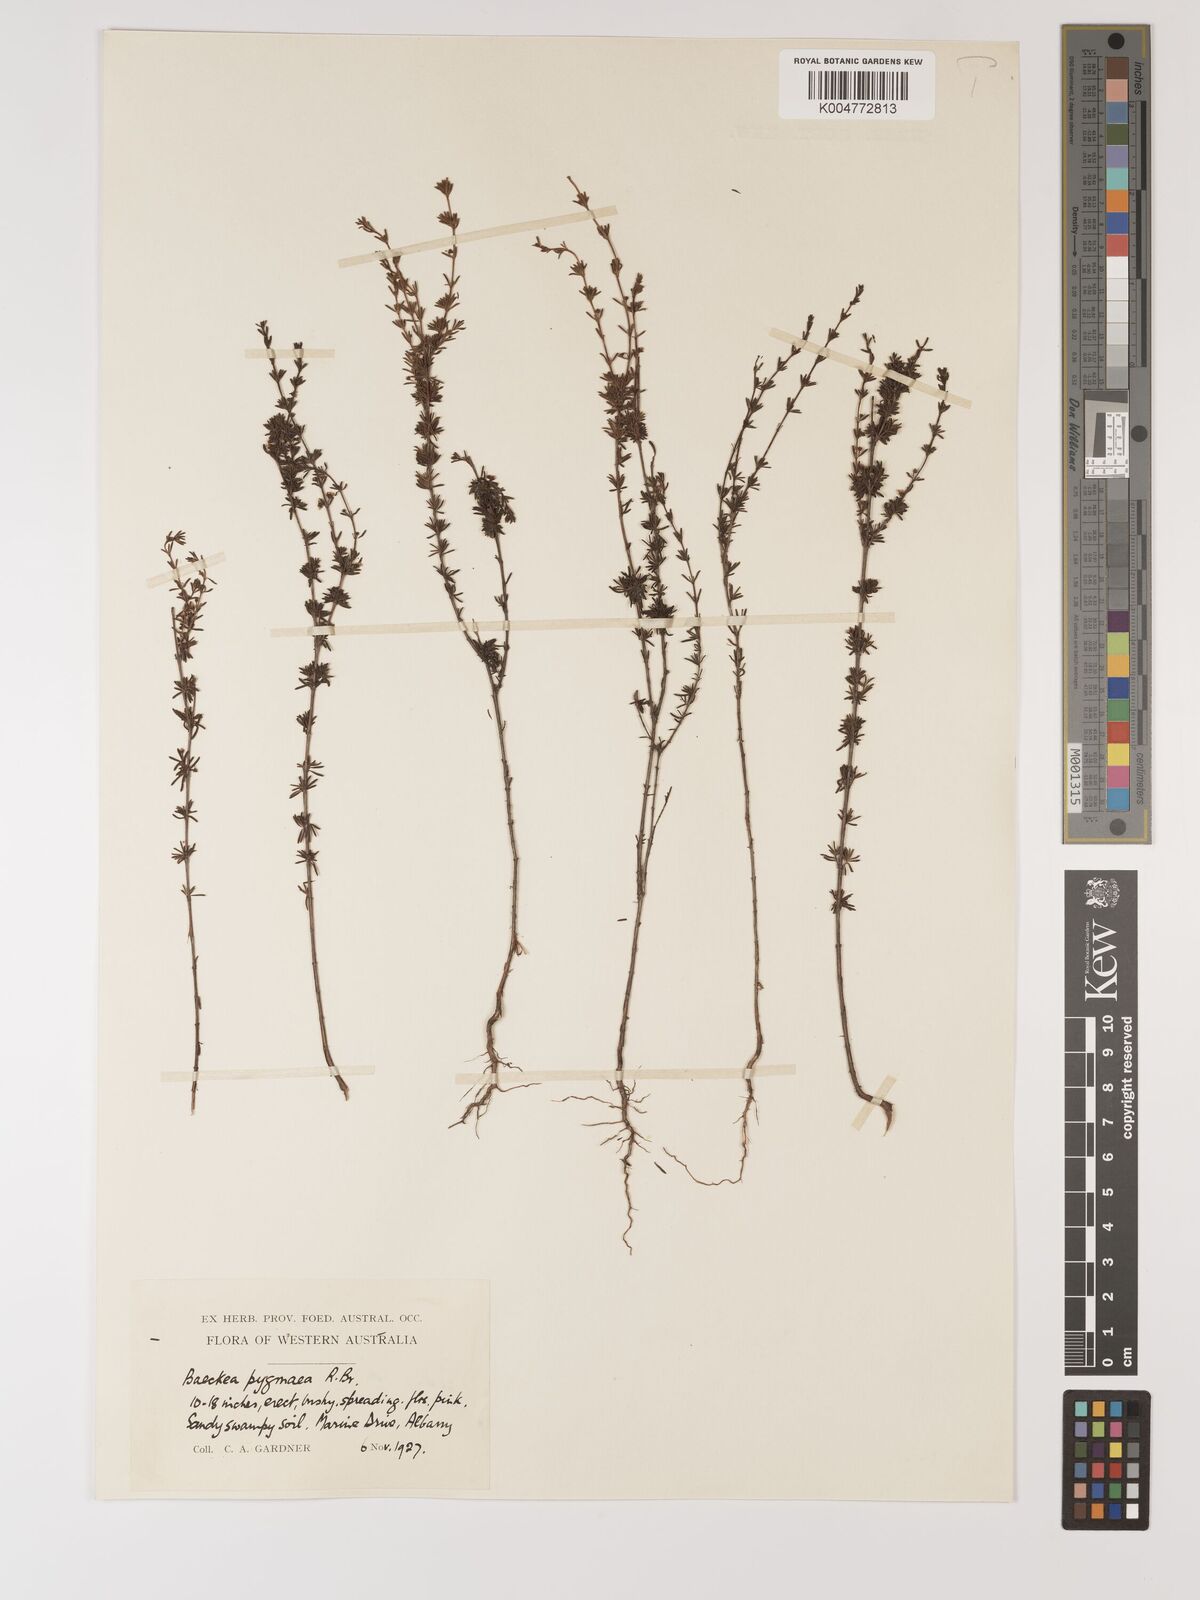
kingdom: Plantae
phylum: Tracheophyta
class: Magnoliopsida
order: Myrtales
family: Myrtaceae
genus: Austrobaeckea
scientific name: Austrobaeckea pygmaea
